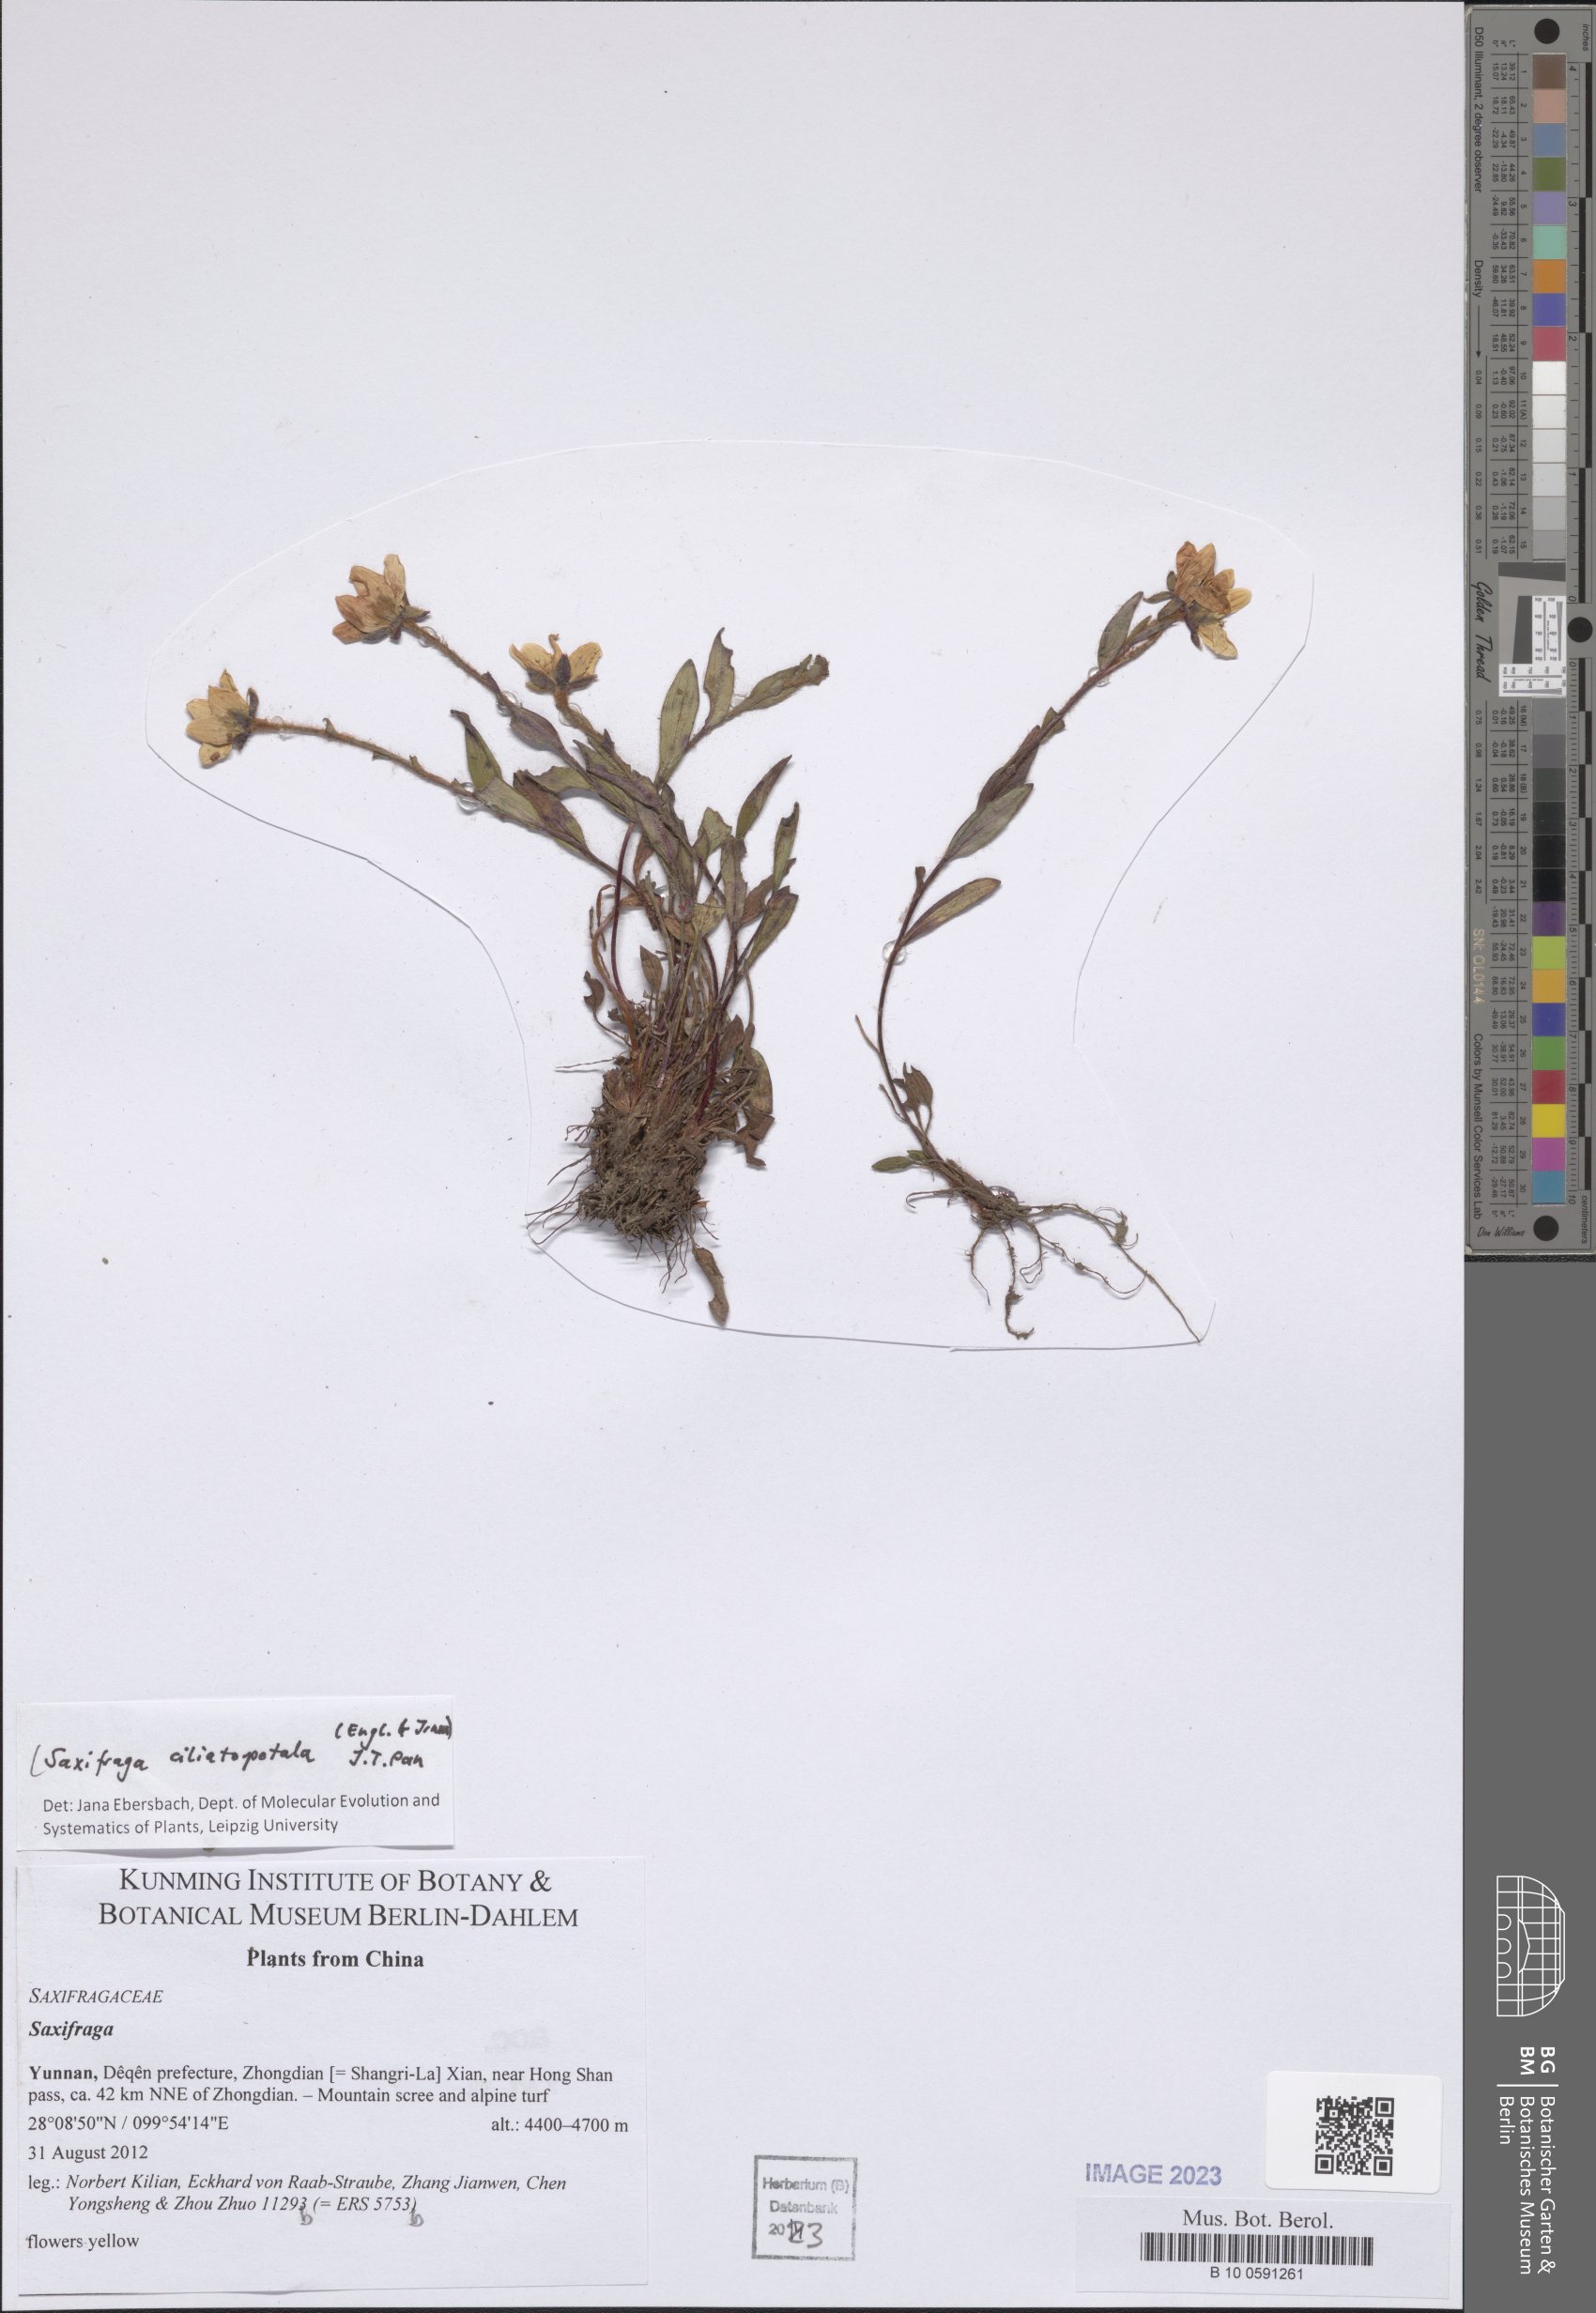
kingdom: Plantae
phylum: Tracheophyta
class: Magnoliopsida
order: Saxifragales
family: Saxifragaceae
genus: Saxifraga
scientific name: Saxifraga ciliatopetala
